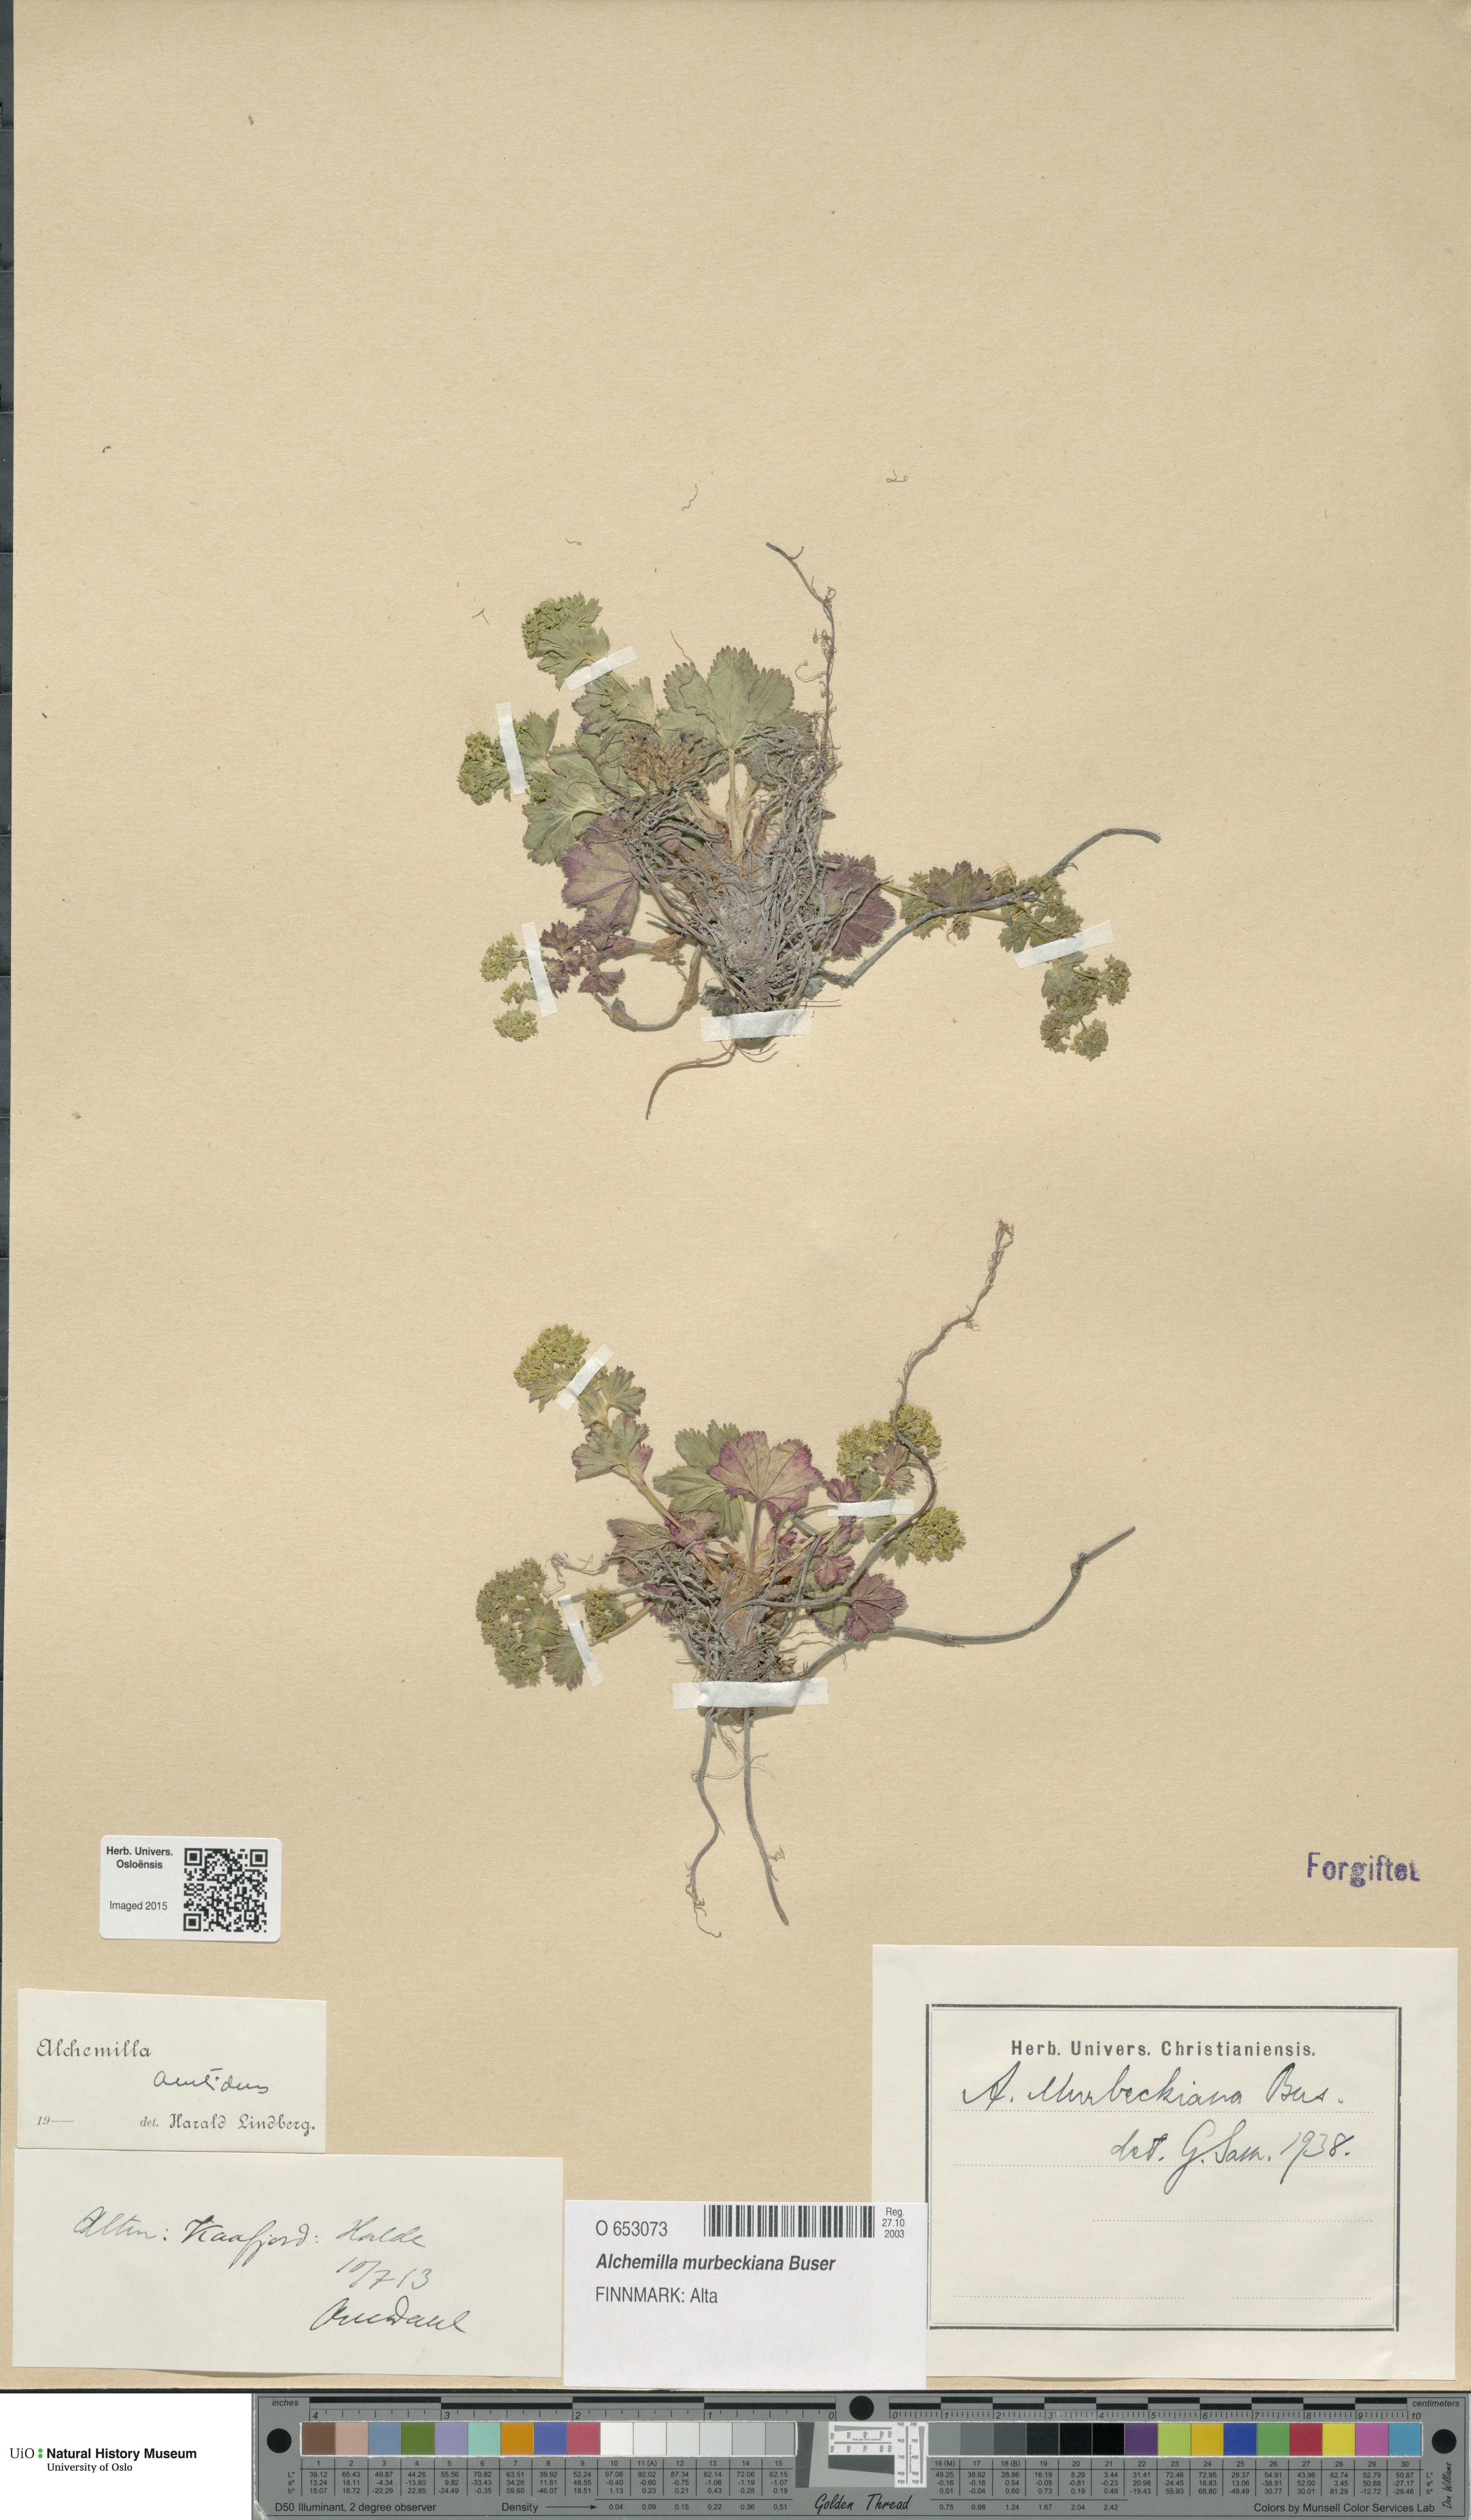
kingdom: Plantae
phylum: Tracheophyta
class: Magnoliopsida
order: Rosales
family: Rosaceae
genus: Alchemilla
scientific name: Alchemilla murbeckiana
